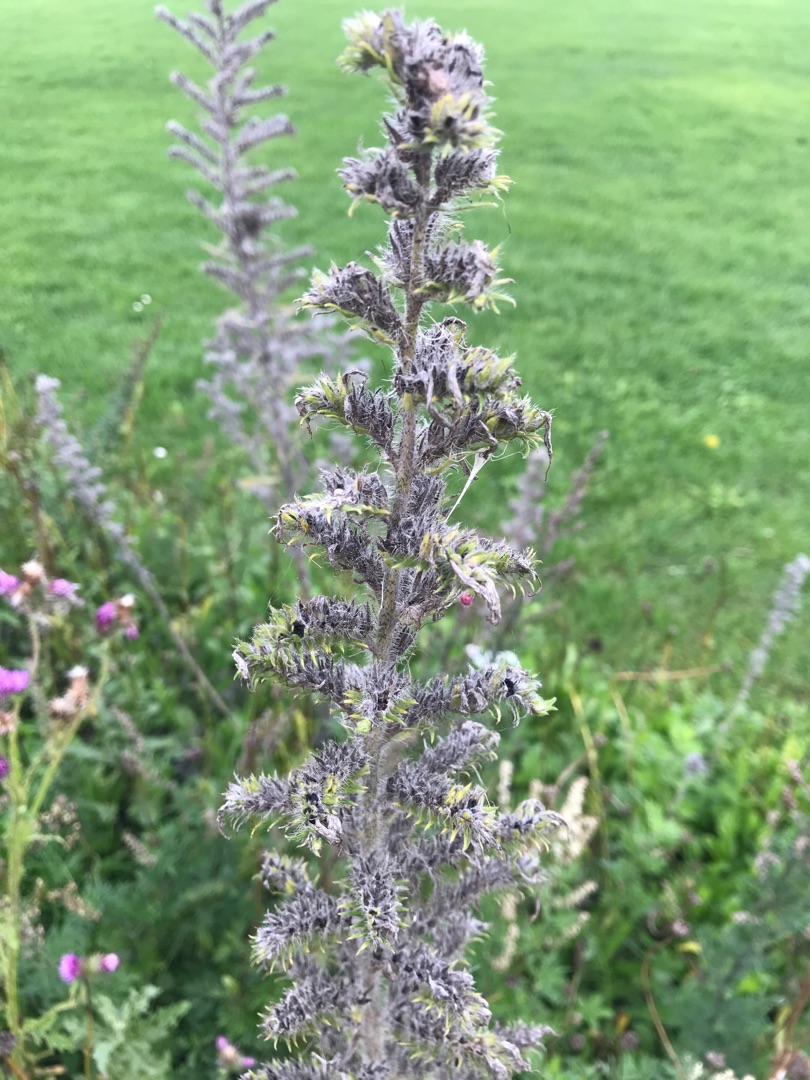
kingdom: Plantae
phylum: Tracheophyta
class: Magnoliopsida
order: Boraginales
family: Boraginaceae
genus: Echium
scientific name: Echium vulgare
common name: Slangehoved
